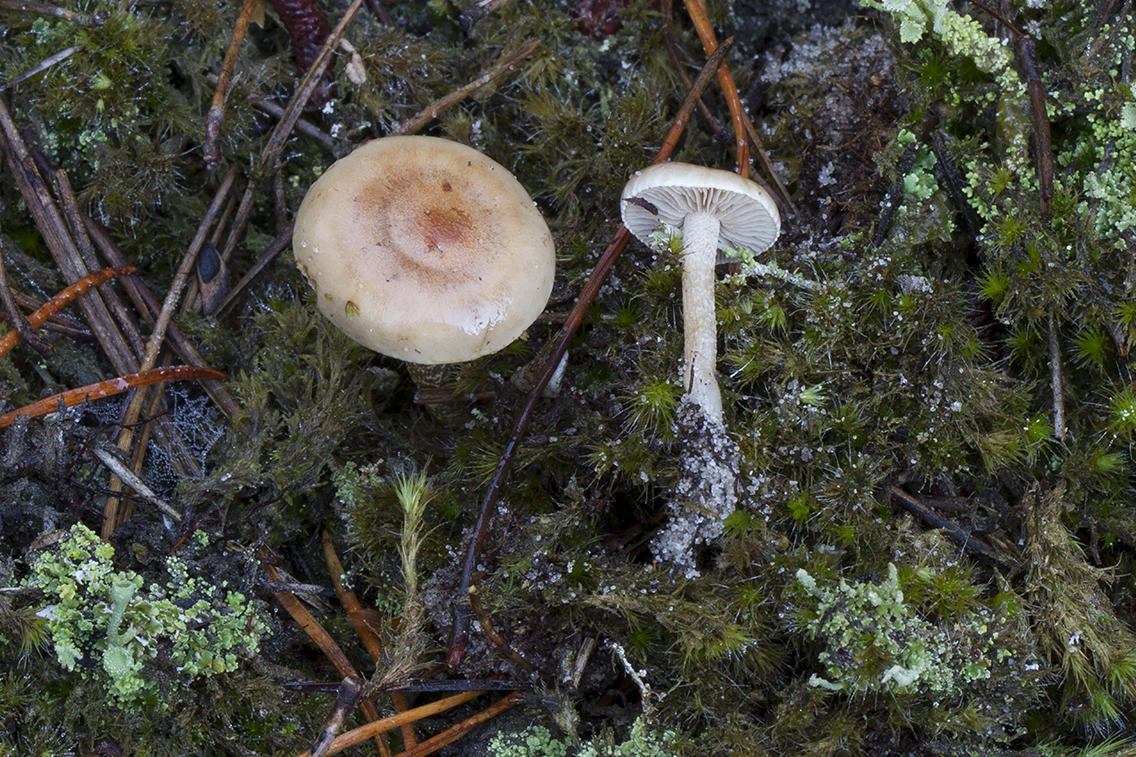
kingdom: Fungi
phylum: Basidiomycota
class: Agaricomycetes
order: Agaricales
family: Hymenogastraceae
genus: Hebeloma
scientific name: Hebeloma cylindrosporum
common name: fyrre-tåreblad
